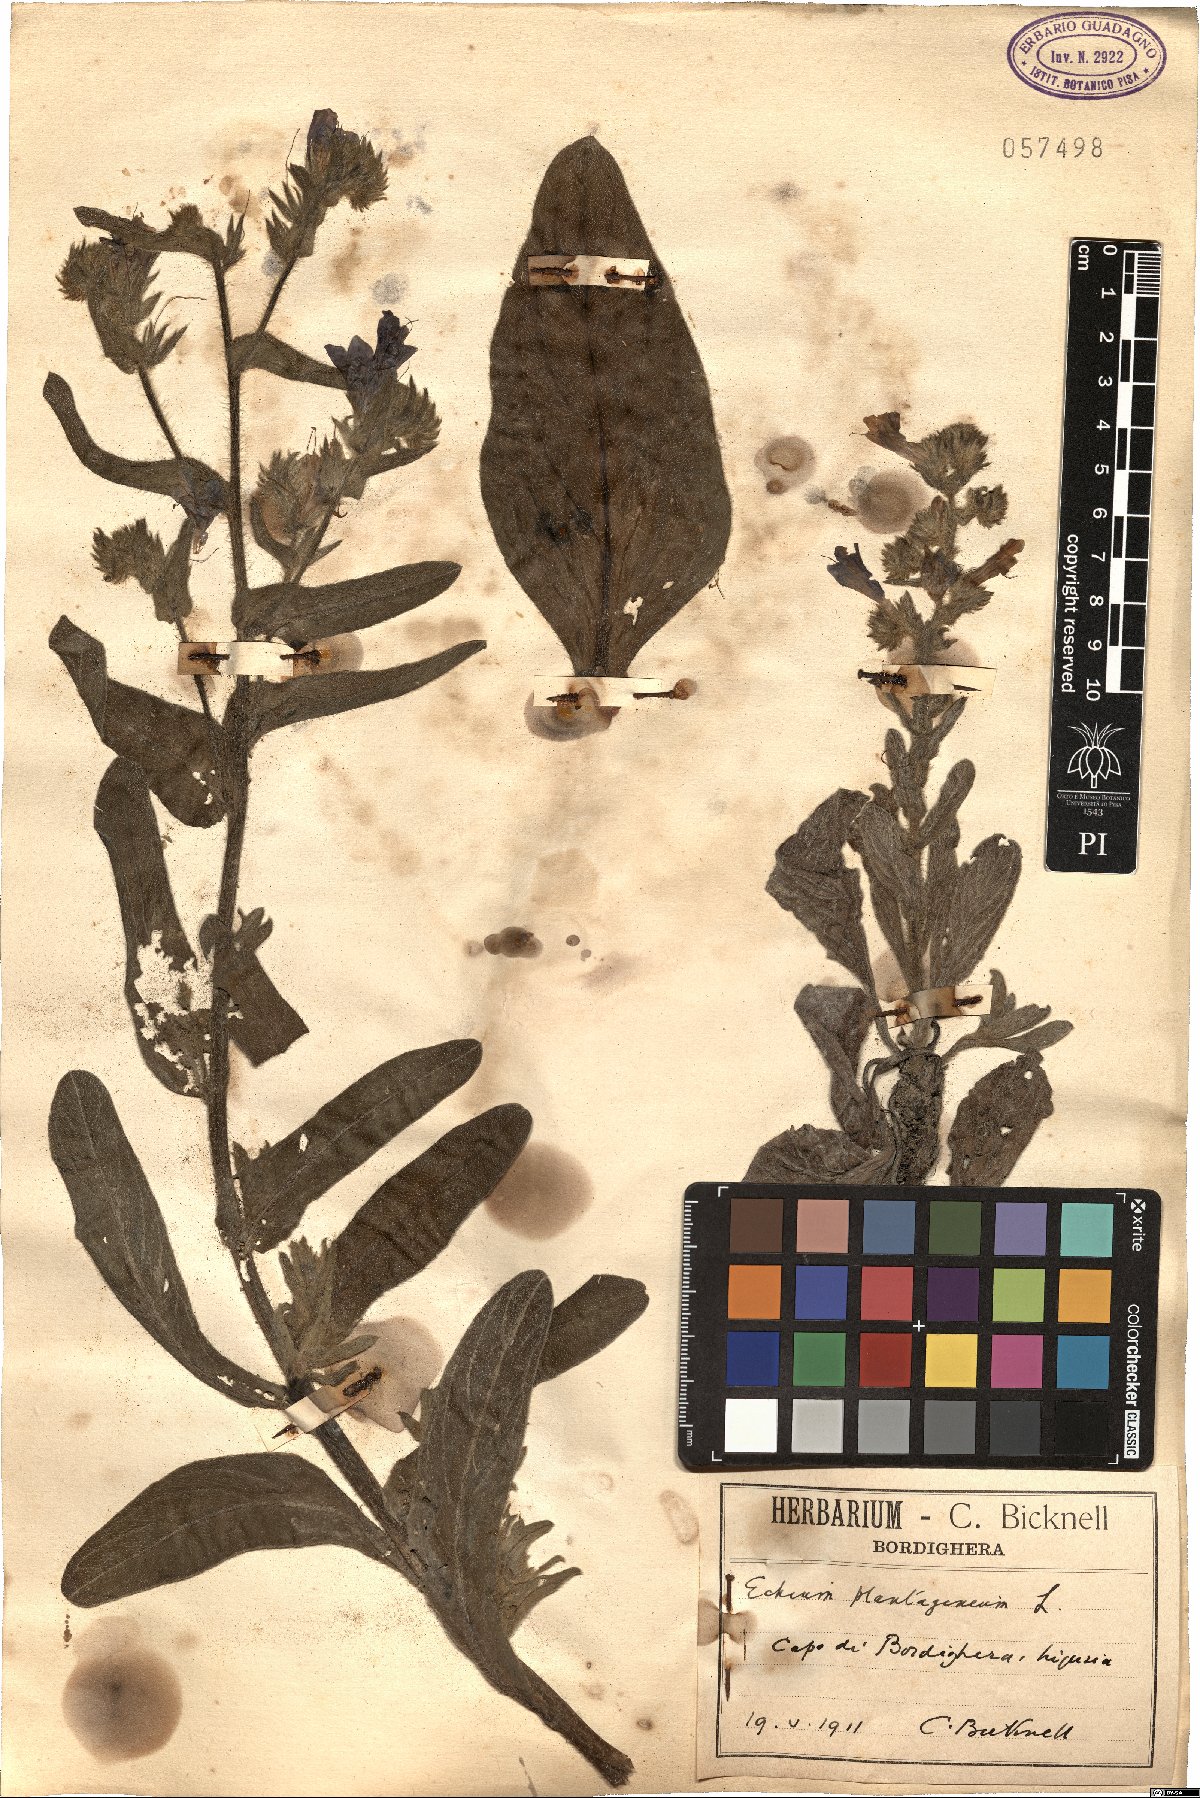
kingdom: Plantae
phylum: Tracheophyta
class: Magnoliopsida
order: Boraginales
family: Boraginaceae
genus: Echium
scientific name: Echium plantagineum
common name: Purple viper's-bugloss
